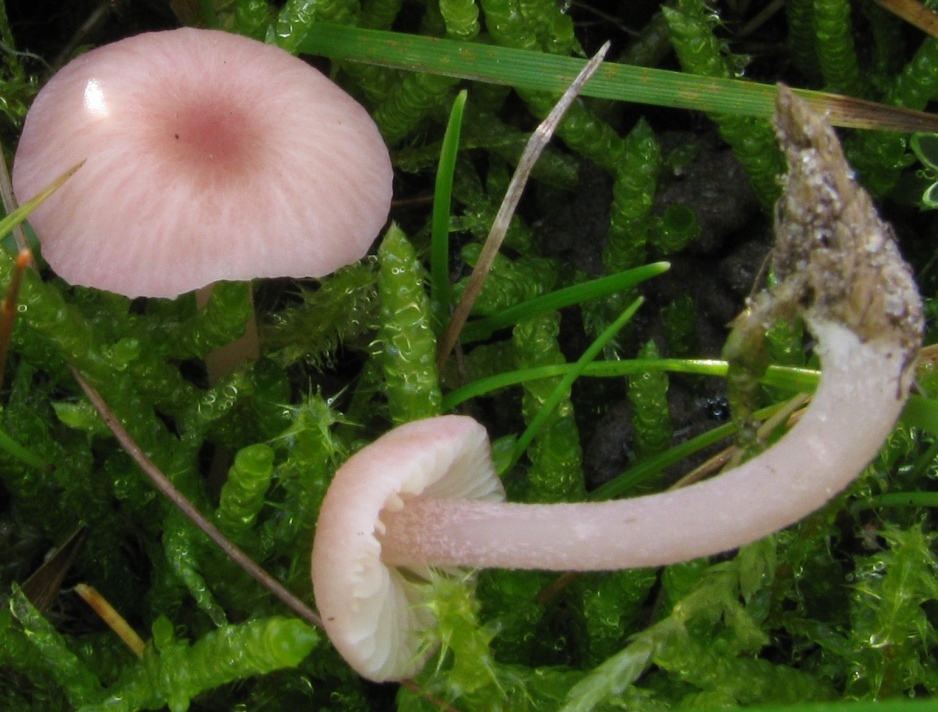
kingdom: Fungi
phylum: Basidiomycota
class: Agaricomycetes
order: Agaricales
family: Entolomataceae
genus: Entoloma
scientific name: Entoloma longistriatum
